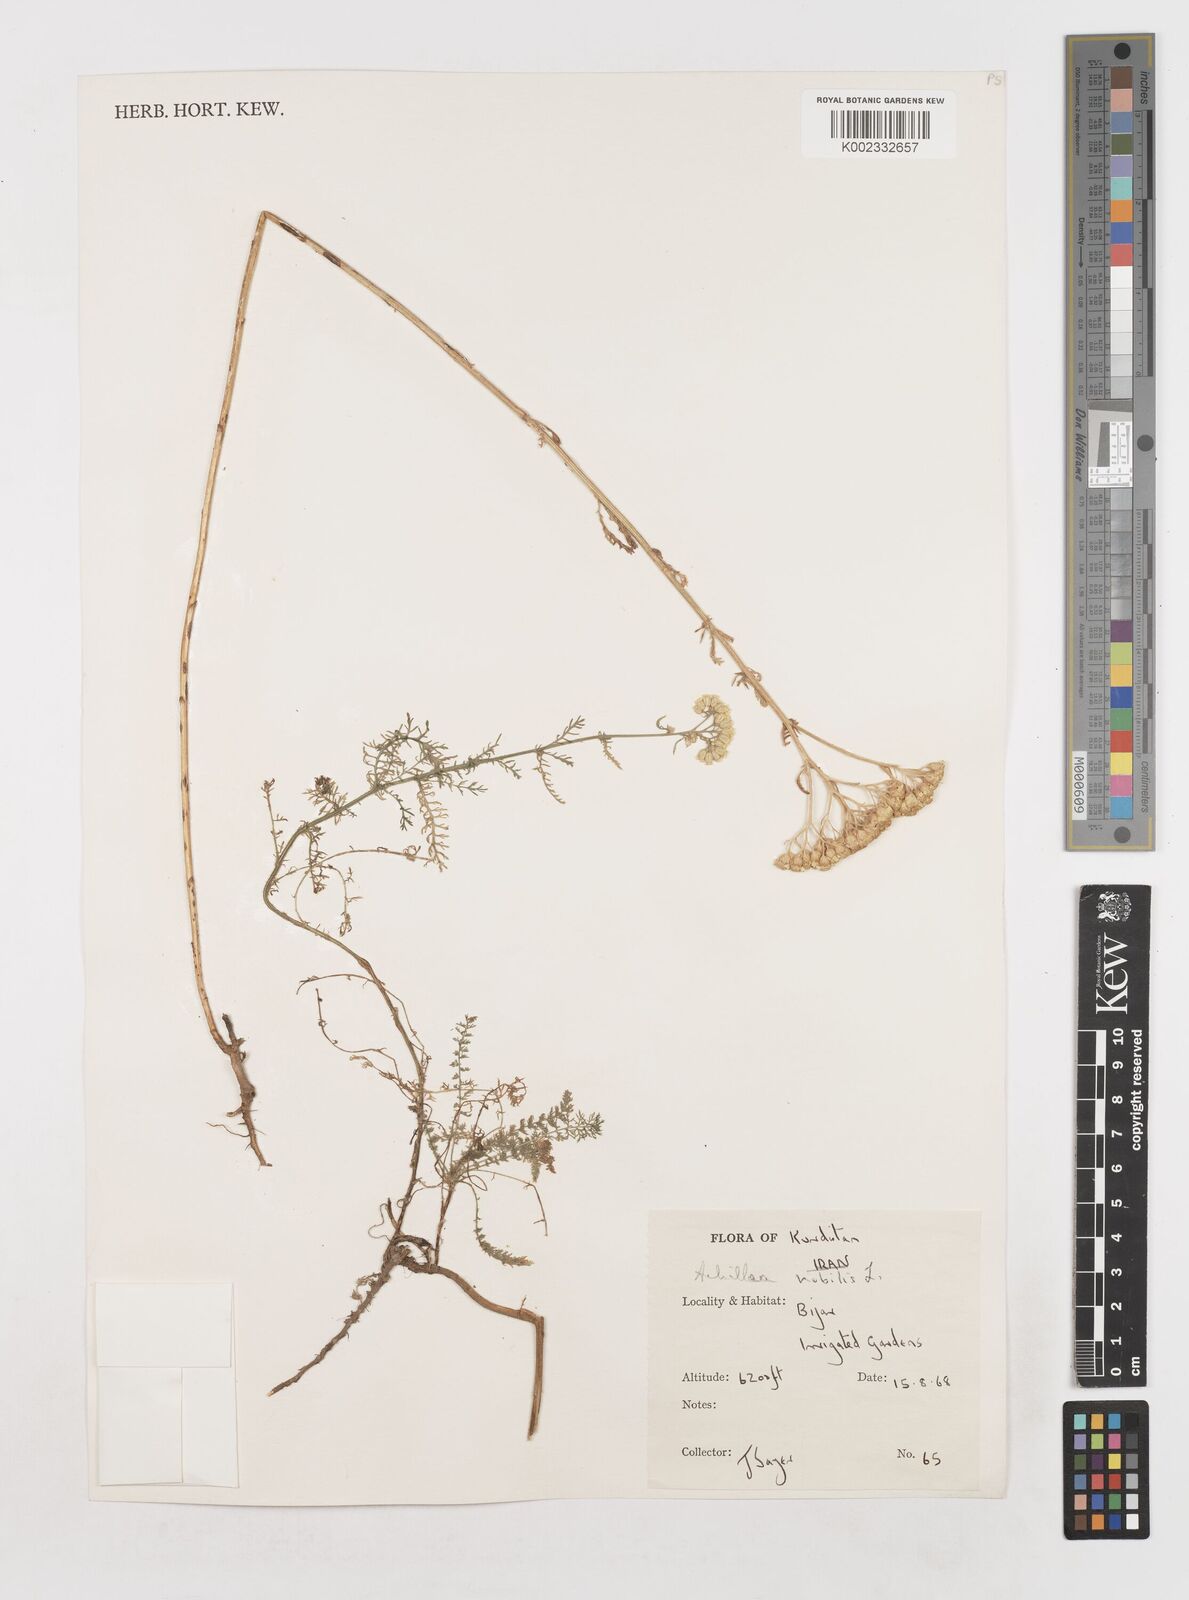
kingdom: Plantae
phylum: Tracheophyta
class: Magnoliopsida
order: Asterales
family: Asteraceae
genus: Achillea
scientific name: Achillea nobilis
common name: Noble yarrow
